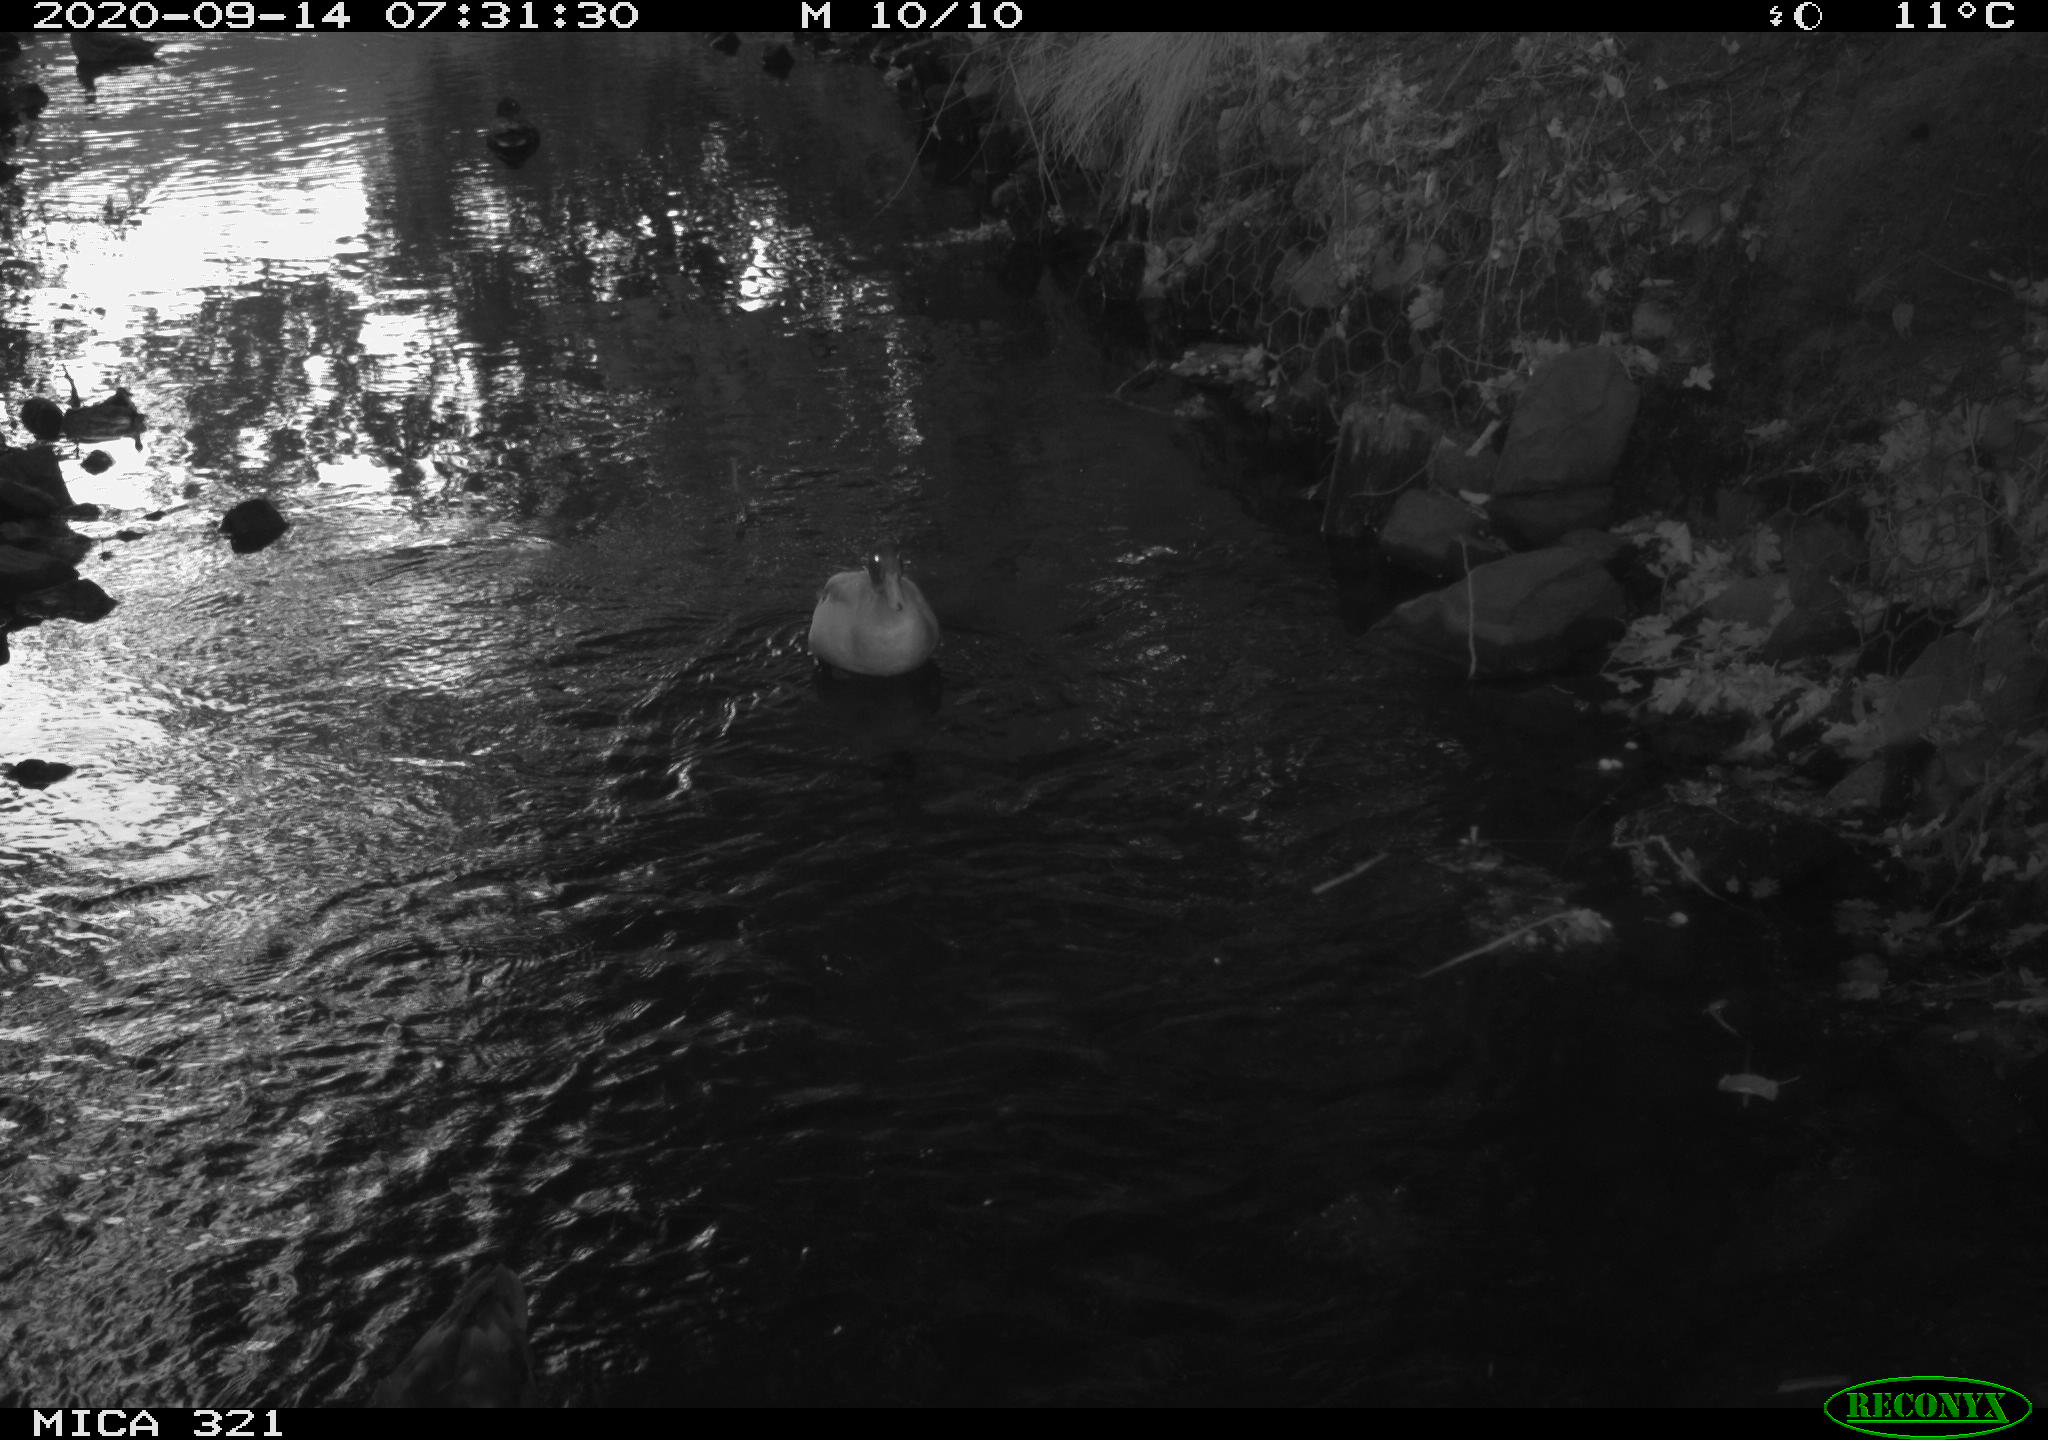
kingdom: Animalia
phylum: Chordata
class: Aves
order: Anseriformes
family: Anatidae
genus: Anas
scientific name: Anas platyrhynchos
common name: Mallard
